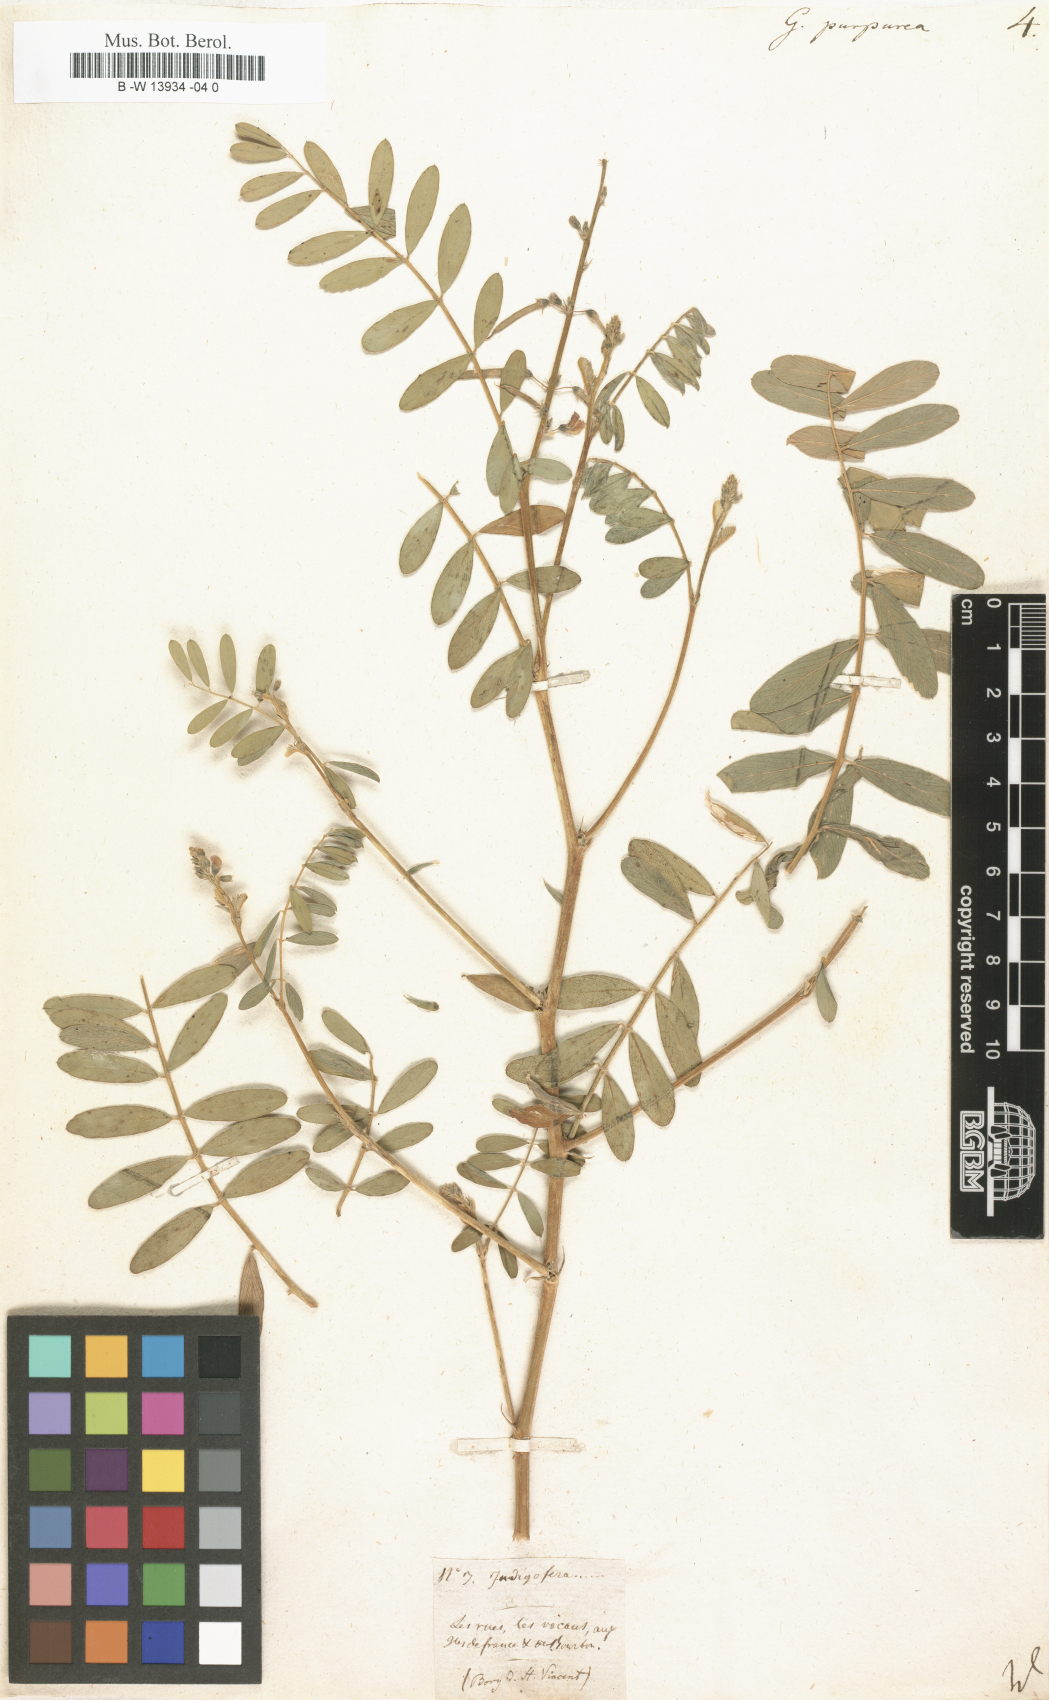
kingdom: Plantae
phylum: Tracheophyta
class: Magnoliopsida
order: Fabales
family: Fabaceae
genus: Tephrosia
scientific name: Tephrosia purpurea
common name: Fishpoison
